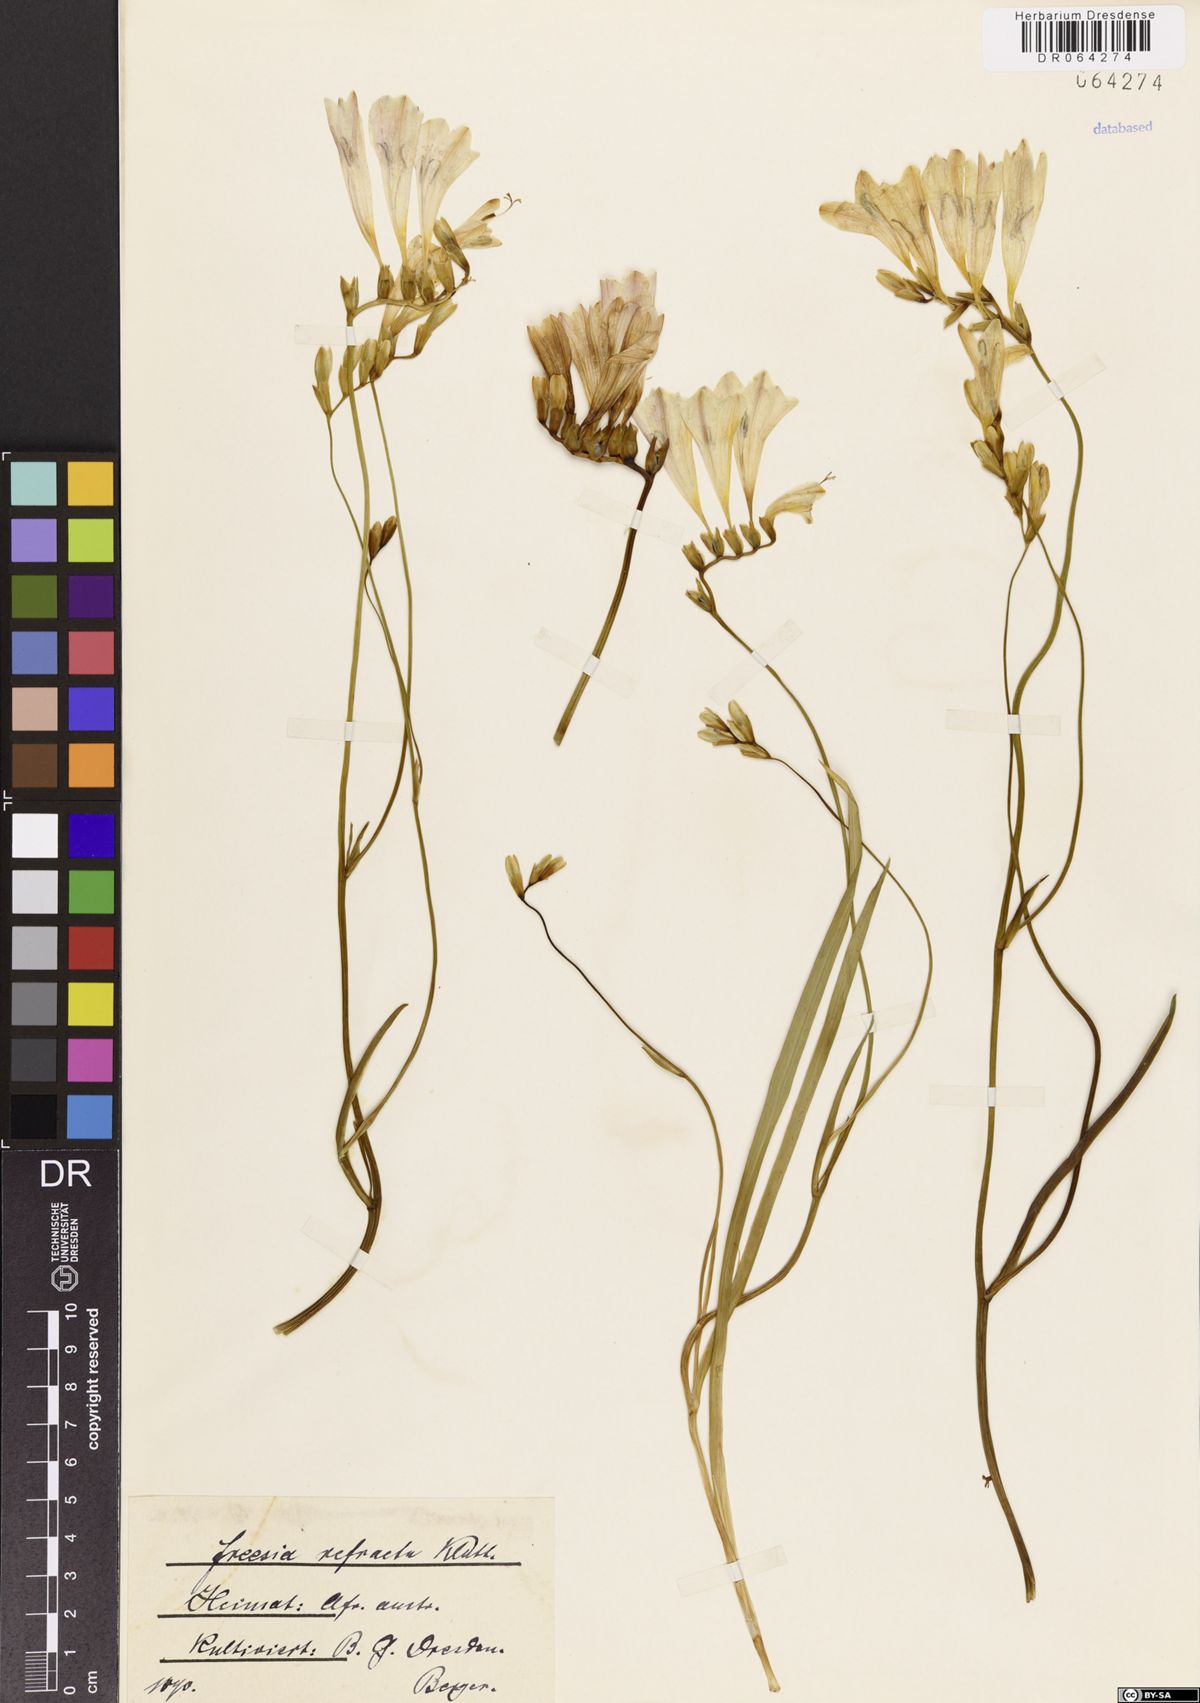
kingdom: Plantae
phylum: Tracheophyta
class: Liliopsida
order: Asparagales
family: Iridaceae
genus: Freesia
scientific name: Freesia refracta
